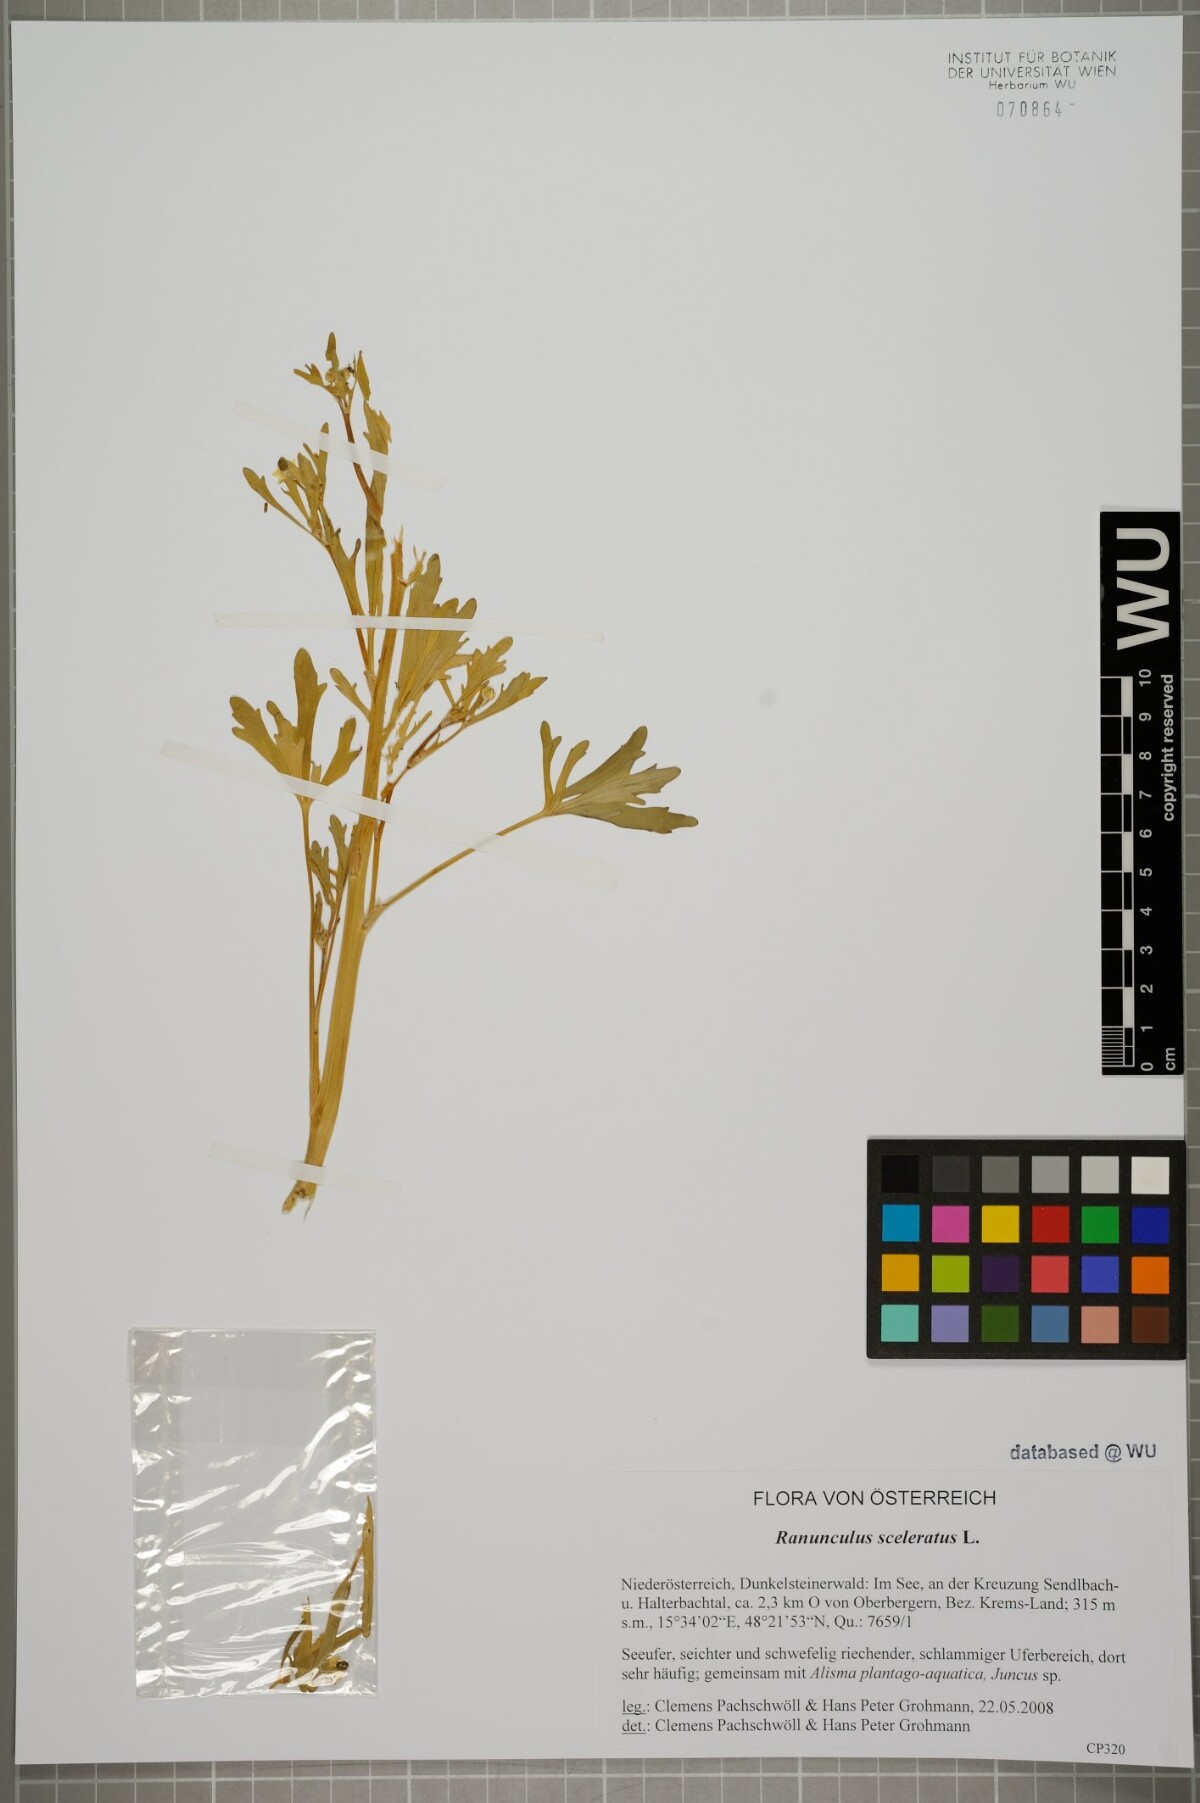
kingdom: Plantae
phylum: Tracheophyta
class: Magnoliopsida
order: Ranunculales
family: Ranunculaceae
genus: Ranunculus
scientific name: Ranunculus sceleratus
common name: Celery-leaved buttercup
